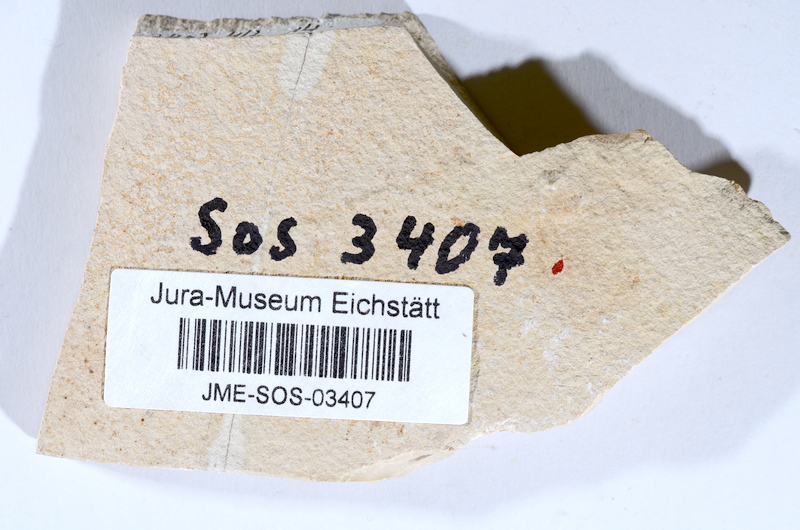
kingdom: Animalia
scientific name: Animalia
